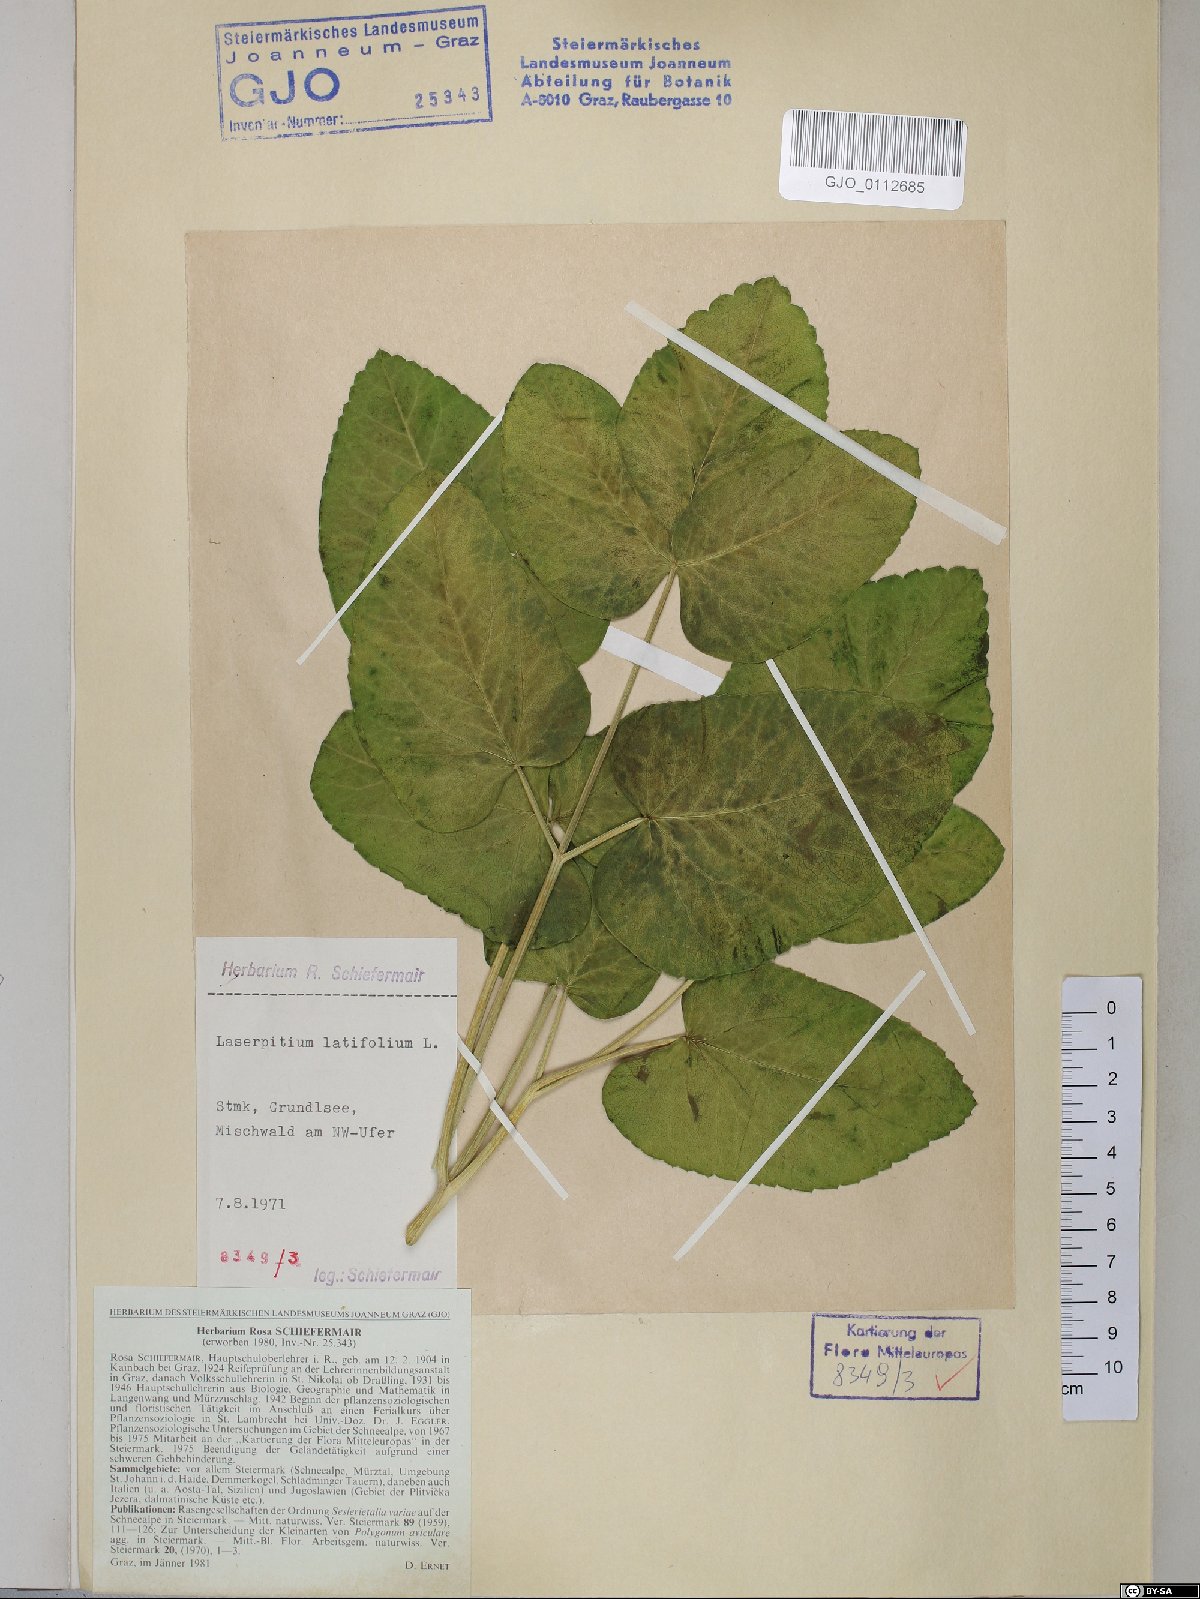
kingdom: Plantae
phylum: Tracheophyta
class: Magnoliopsida
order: Apiales
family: Apiaceae
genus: Laserpitium
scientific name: Laserpitium latifolium
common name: Broadleaf sermountain
